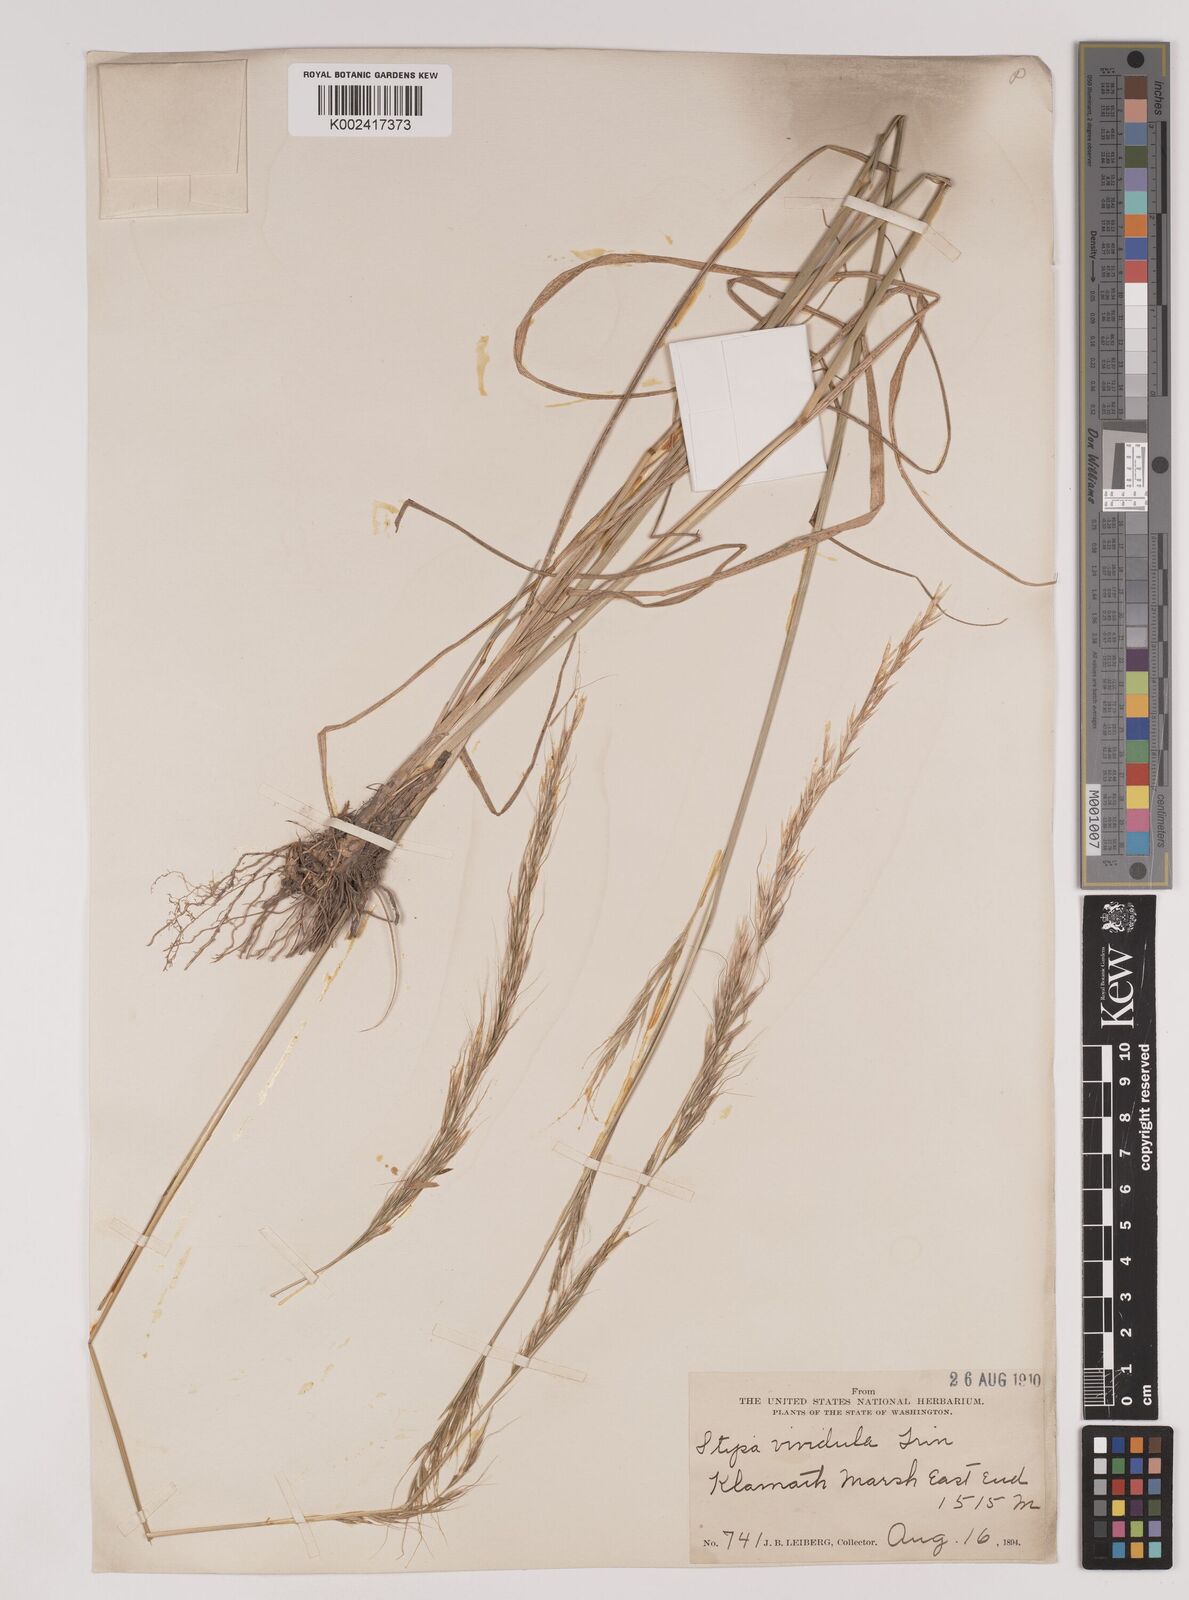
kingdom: Plantae
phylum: Tracheophyta
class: Liliopsida
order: Poales
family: Poaceae
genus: Nassella
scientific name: Nassella viridula
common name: Green needlegrass
